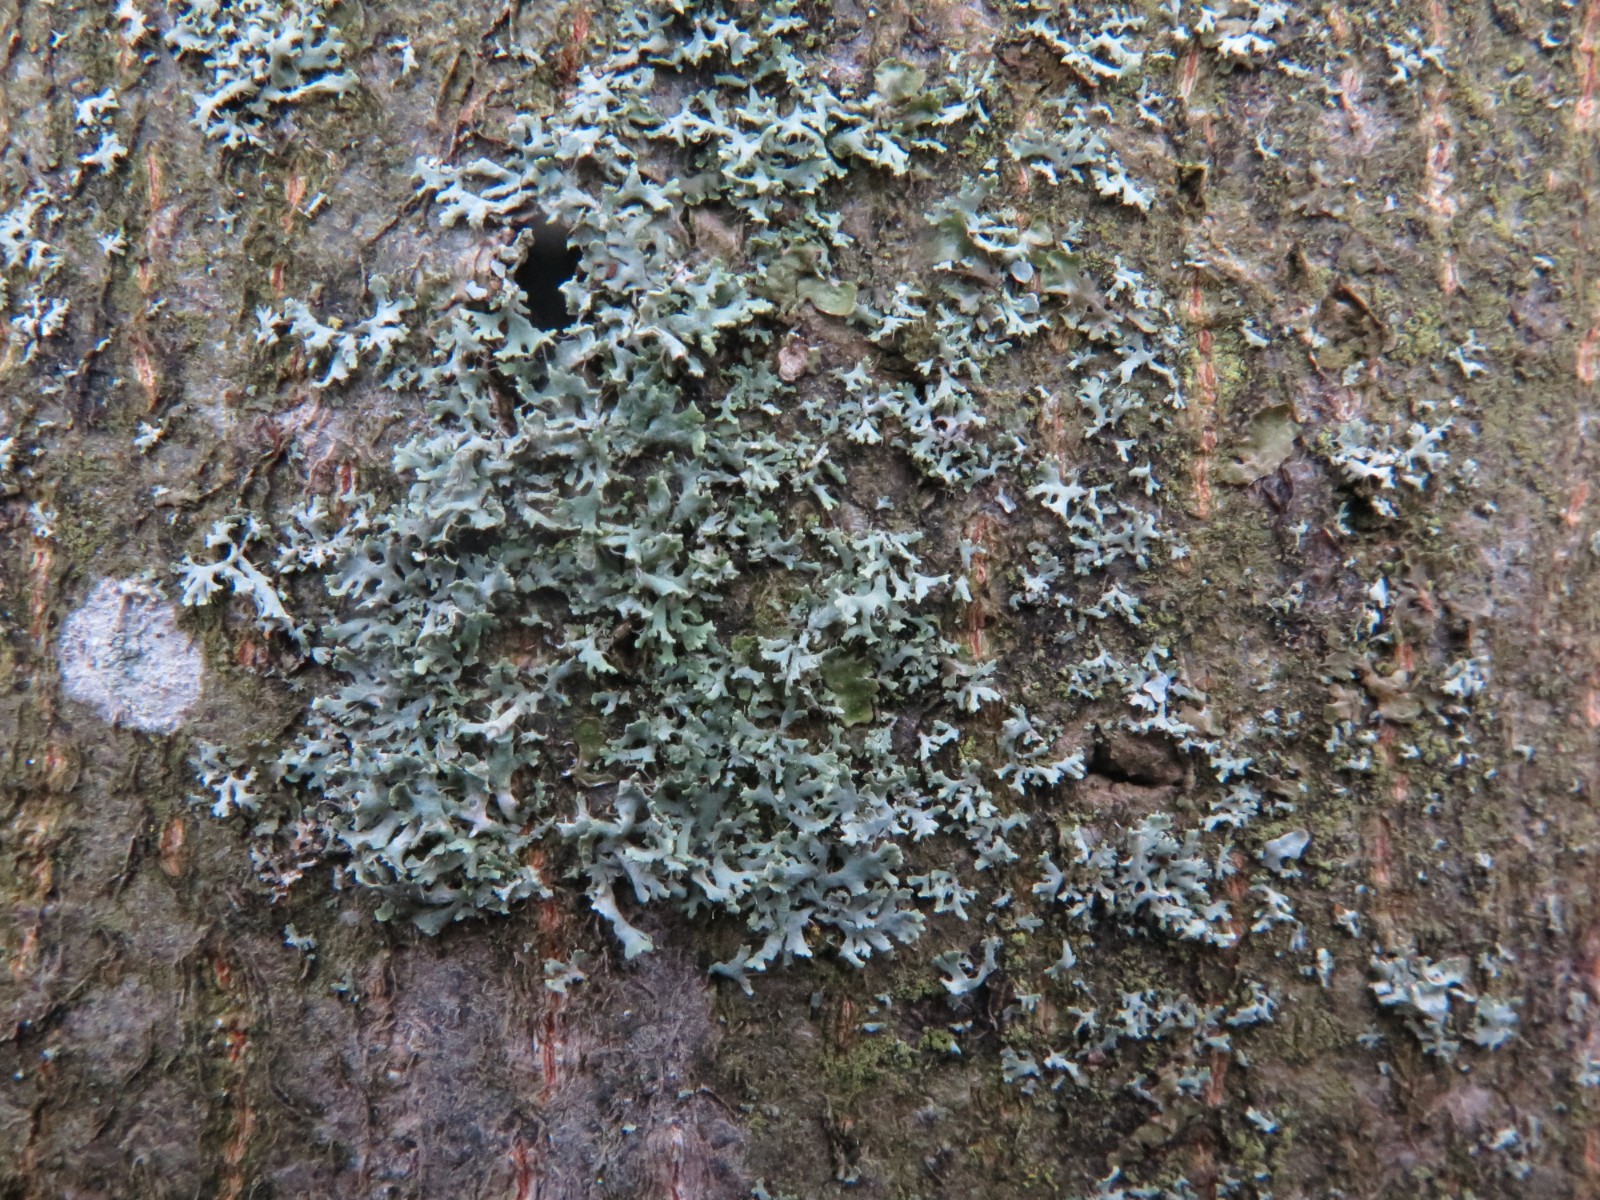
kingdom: Fungi
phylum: Ascomycota
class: Lecanoromycetes
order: Caliciales
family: Physciaceae
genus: Physcia
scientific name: Physcia tenella
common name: spæd rosetlav
